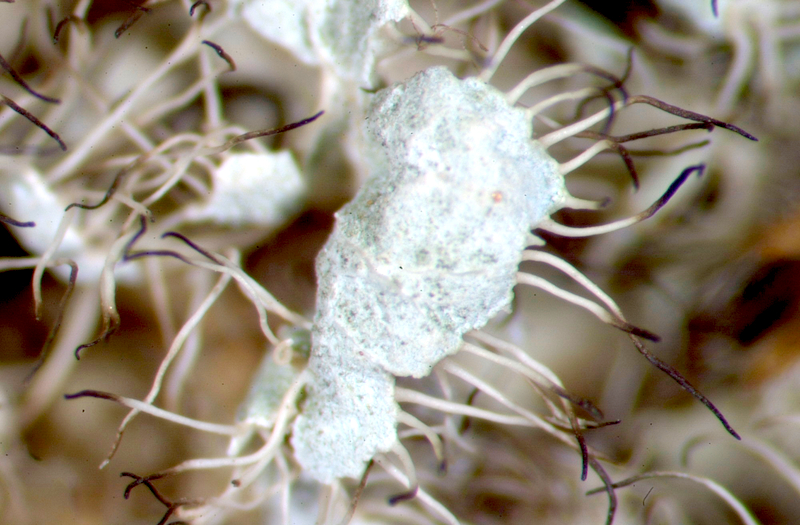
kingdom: Fungi
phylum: Ascomycota
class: Lecanoromycetes
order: Teloschistales
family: Teloschistaceae
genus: Xanthoria
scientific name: Xanthoria
